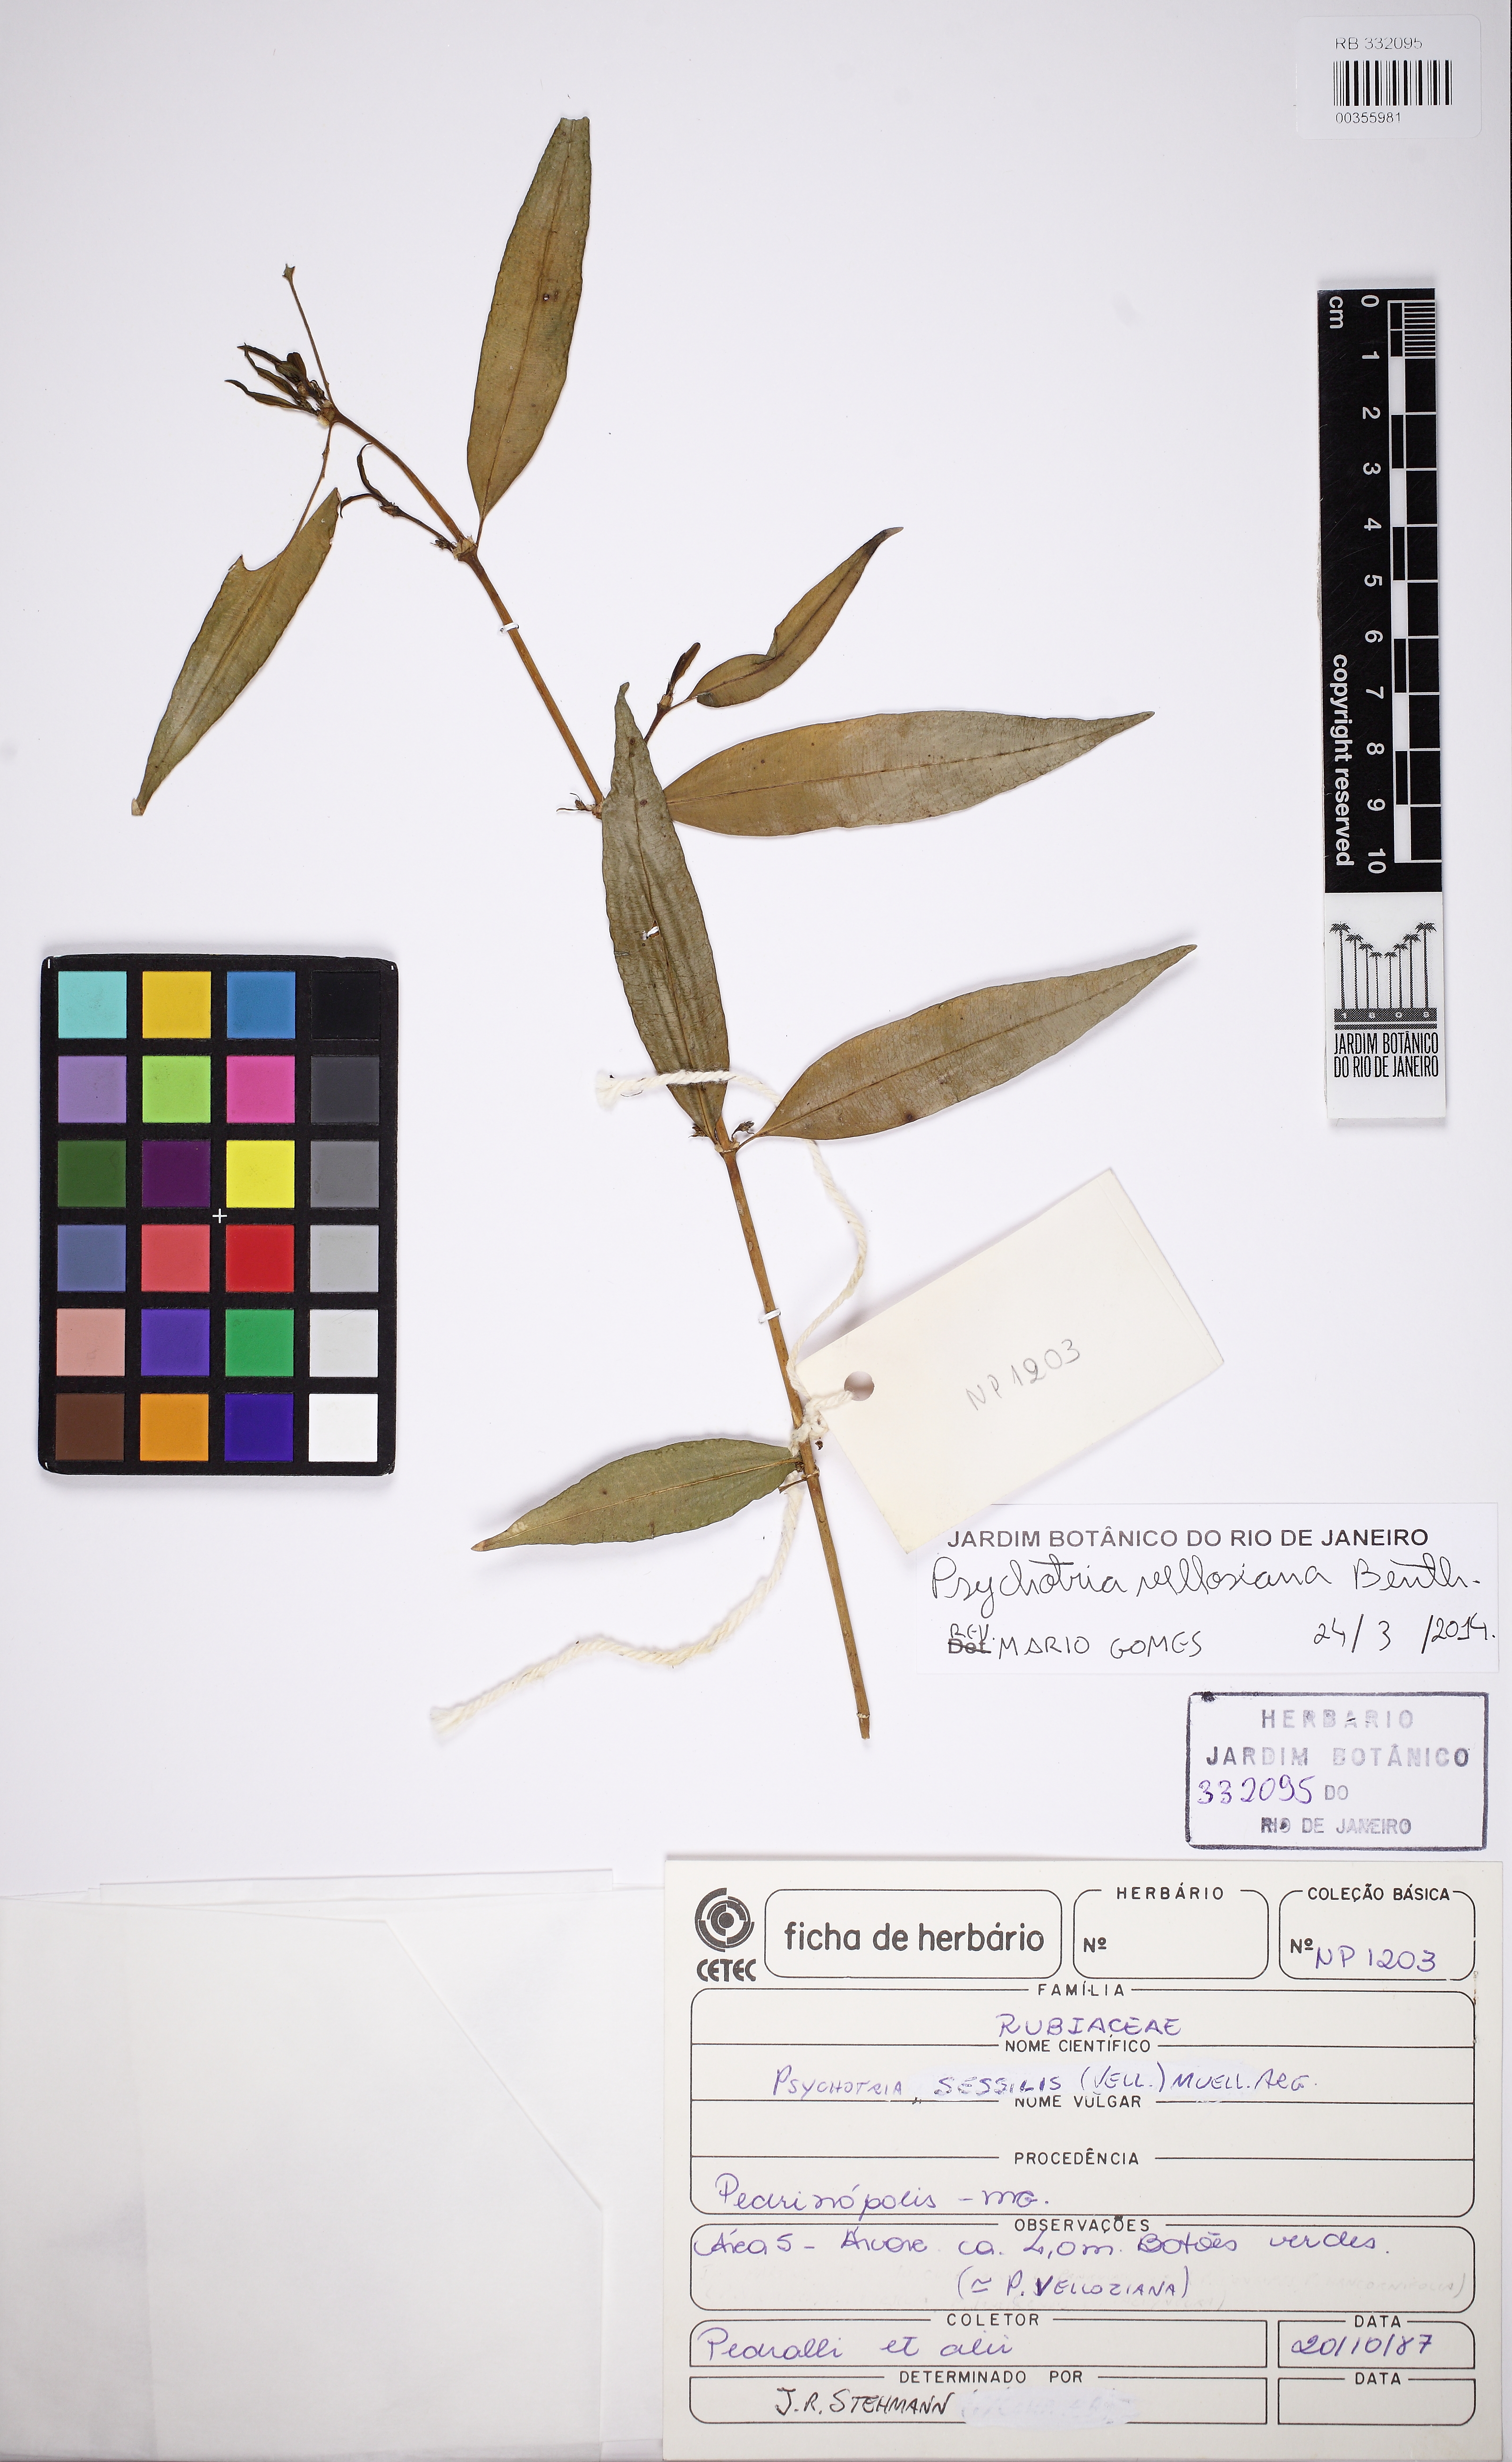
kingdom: Plantae
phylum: Tracheophyta
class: Magnoliopsida
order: Gentianales
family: Rubiaceae
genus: Palicourea
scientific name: Palicourea sessilis
